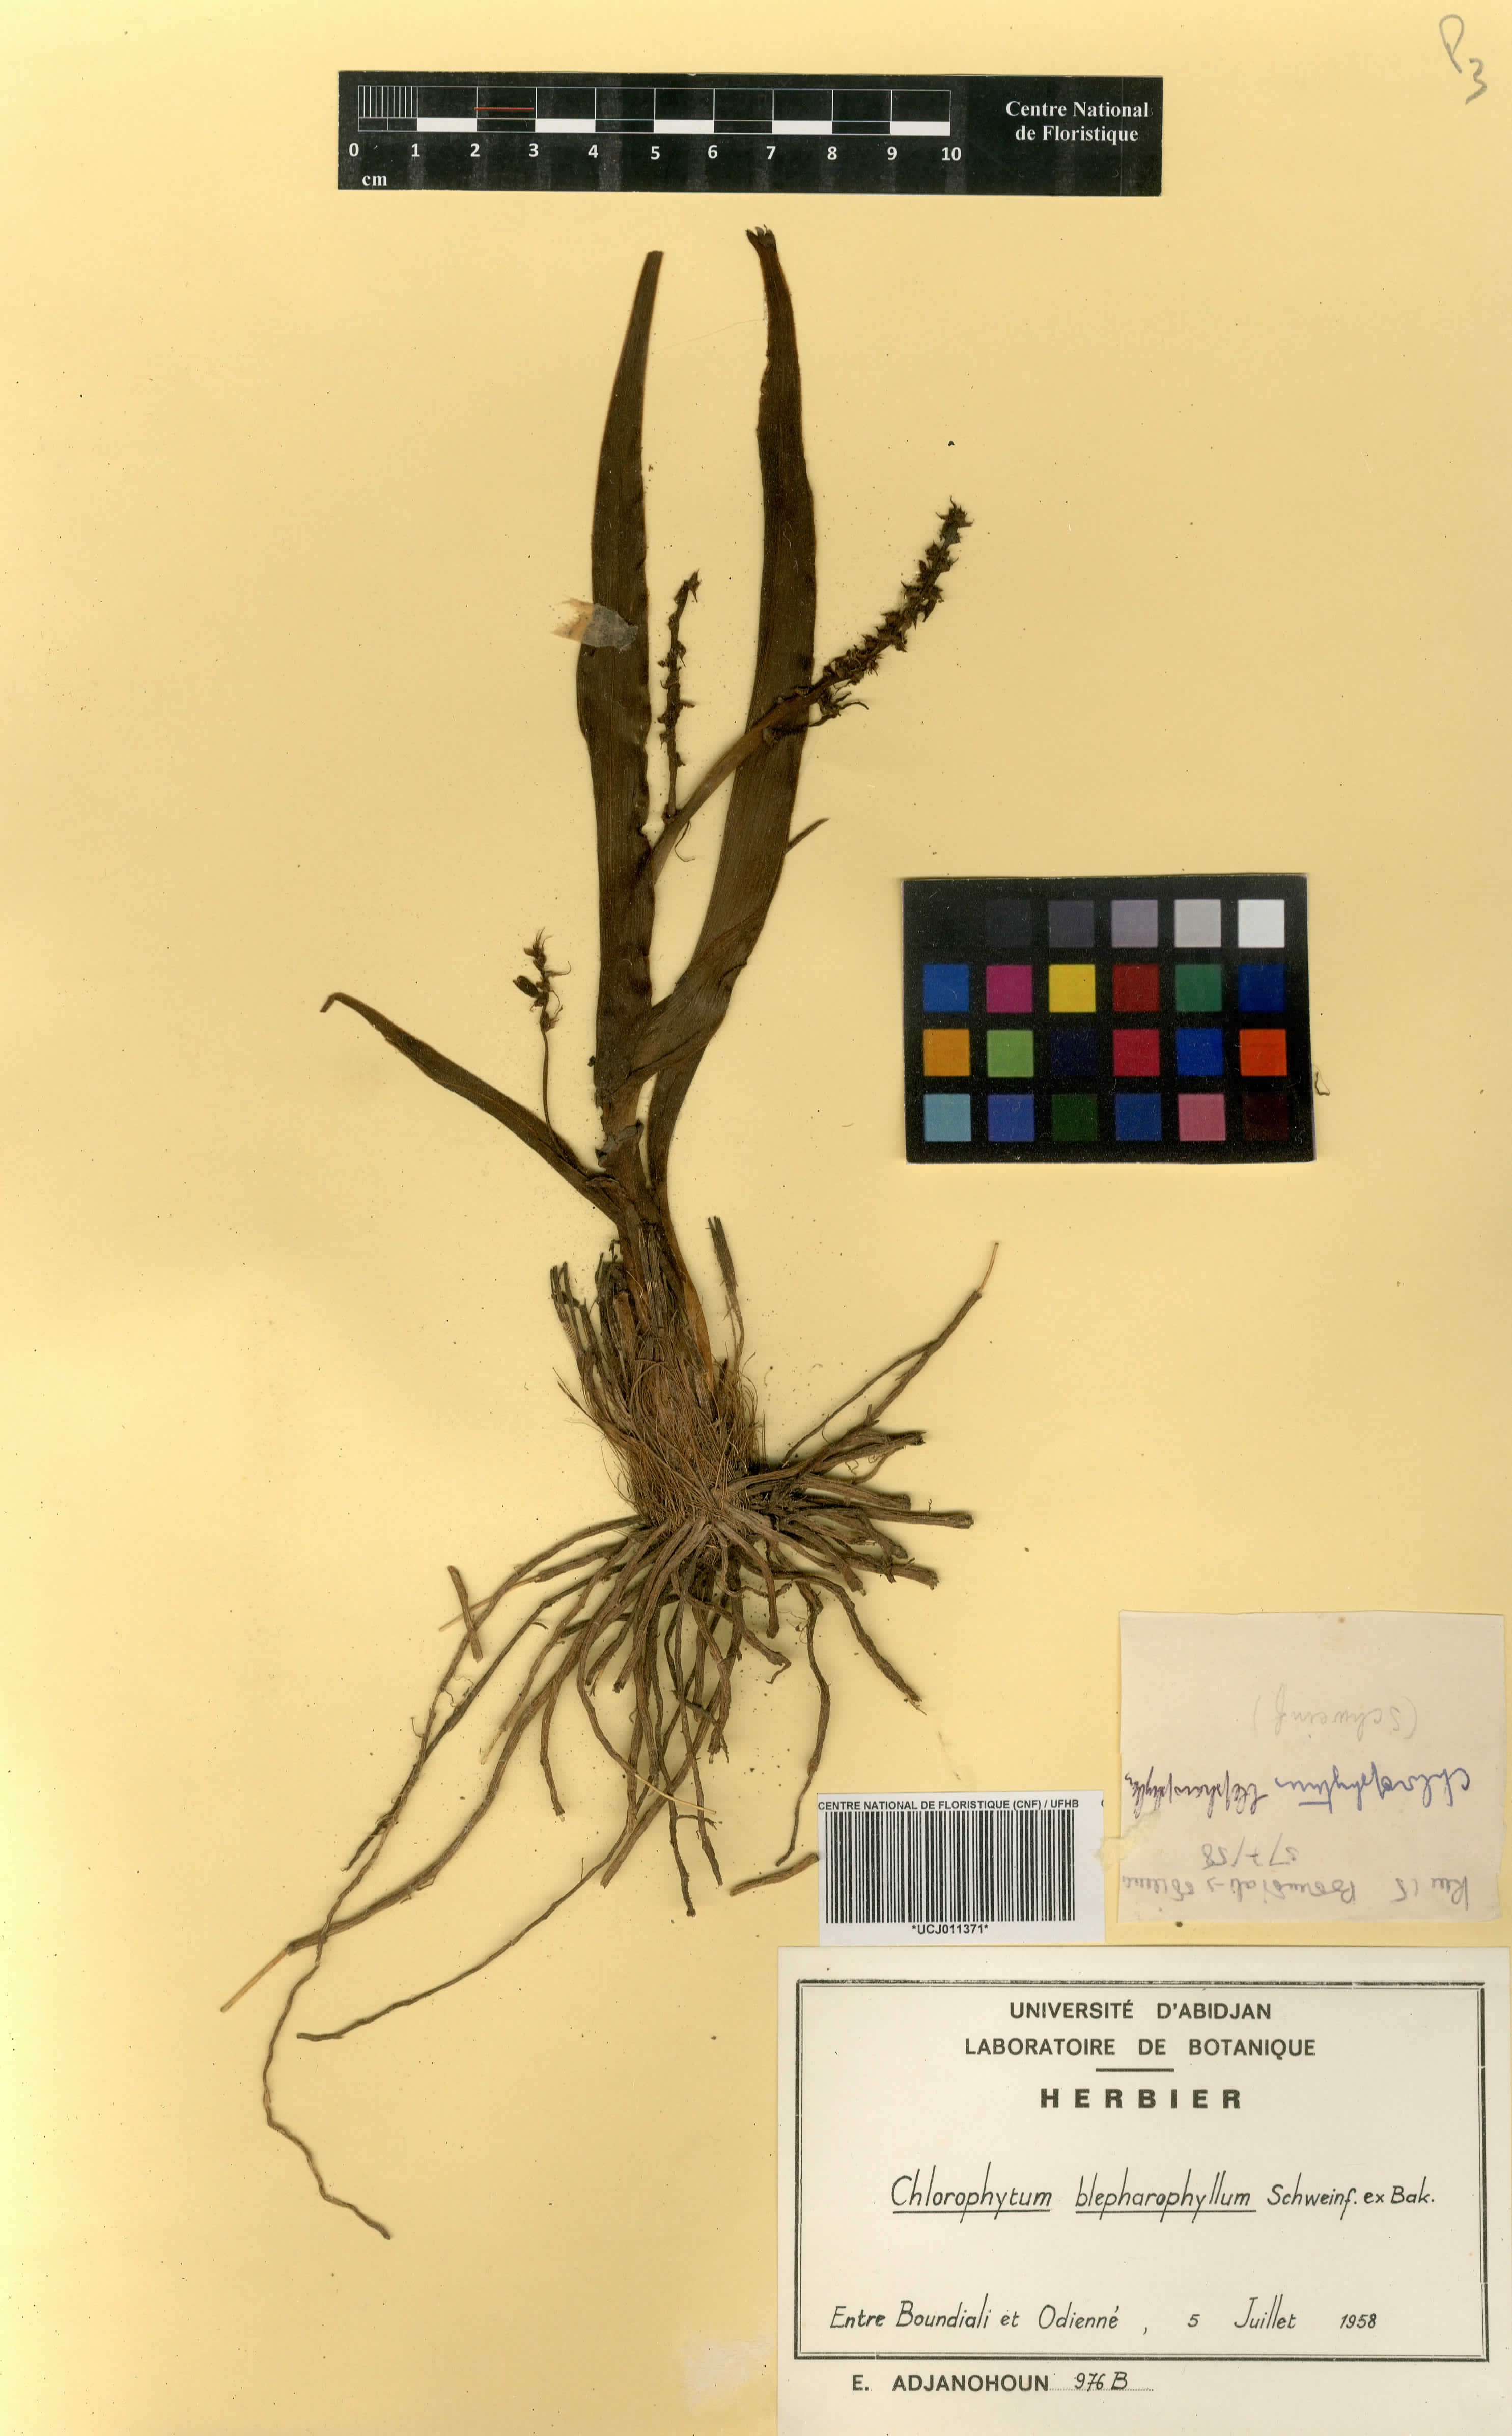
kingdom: Plantae
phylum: Tracheophyta
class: Liliopsida
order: Asparagales
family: Asparagaceae
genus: Chlorophytum
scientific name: Chlorophytum blepharophyllum
